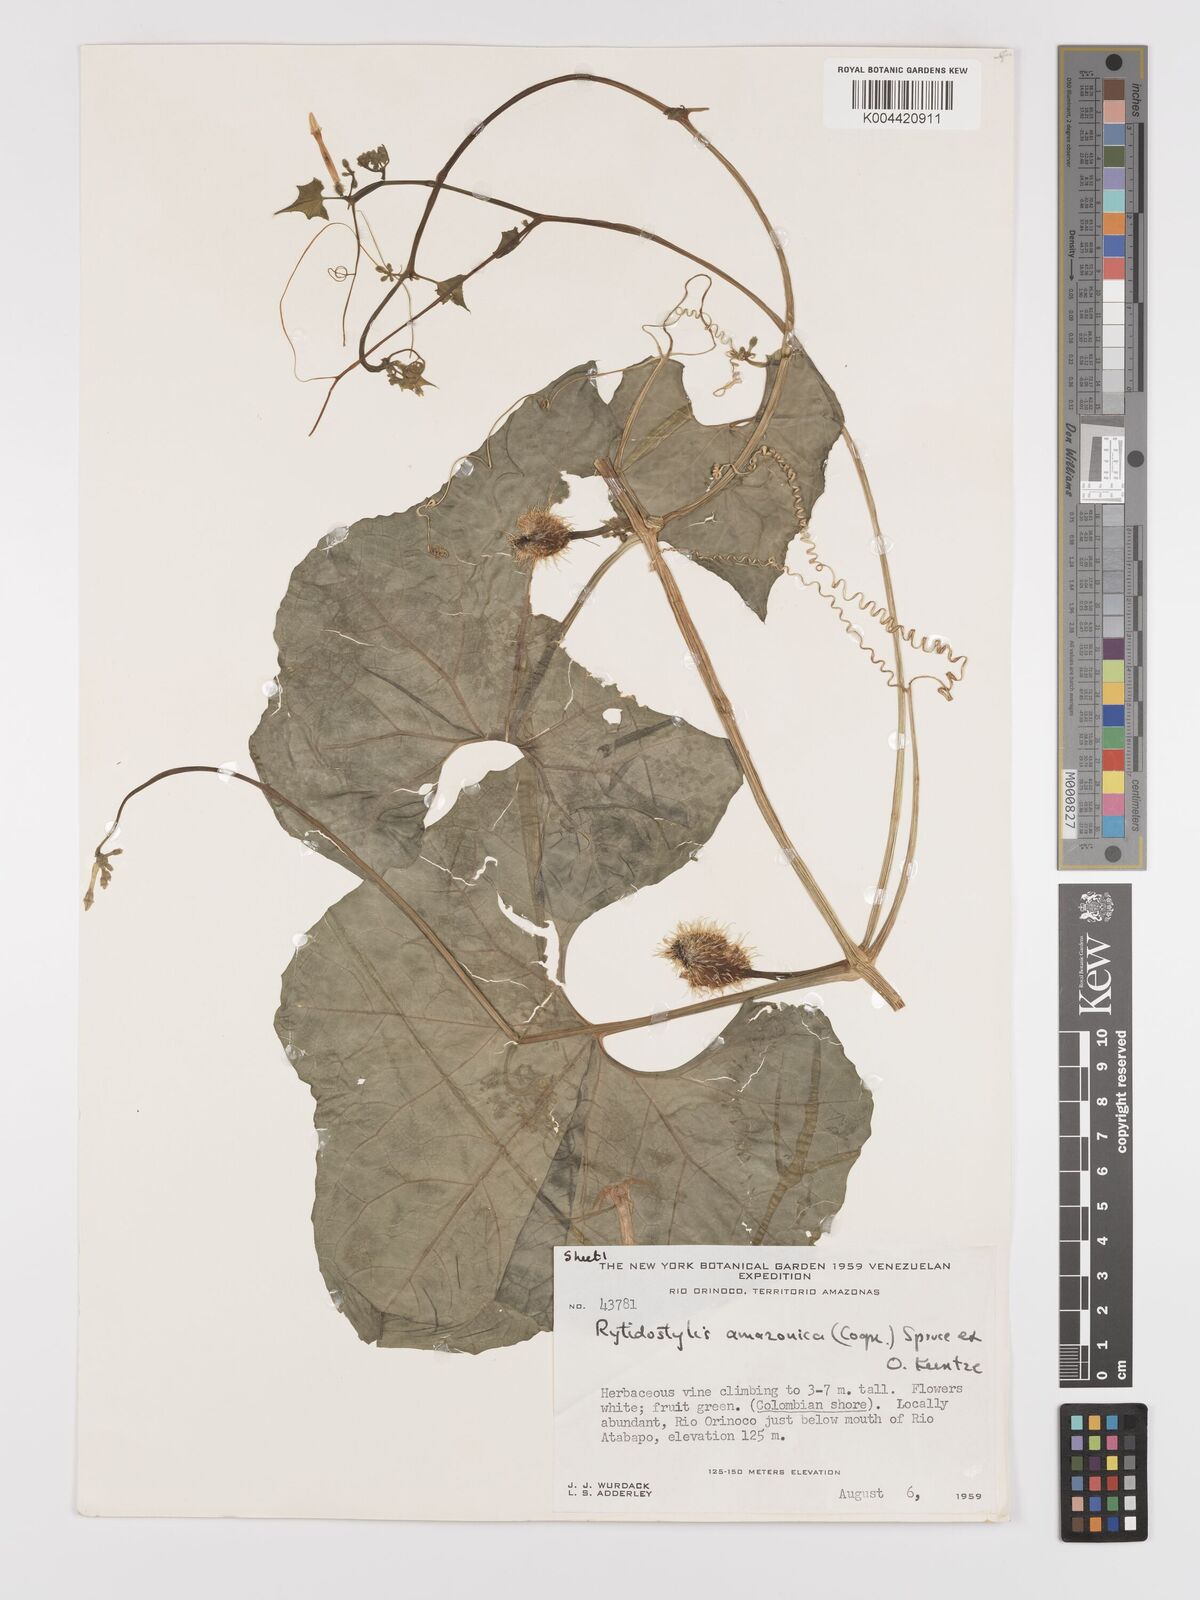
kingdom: Plantae
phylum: Tracheophyta
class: Magnoliopsida
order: Cucurbitales
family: Cucurbitaceae
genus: Cyclanthera
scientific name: Cyclanthera carthagenensis
